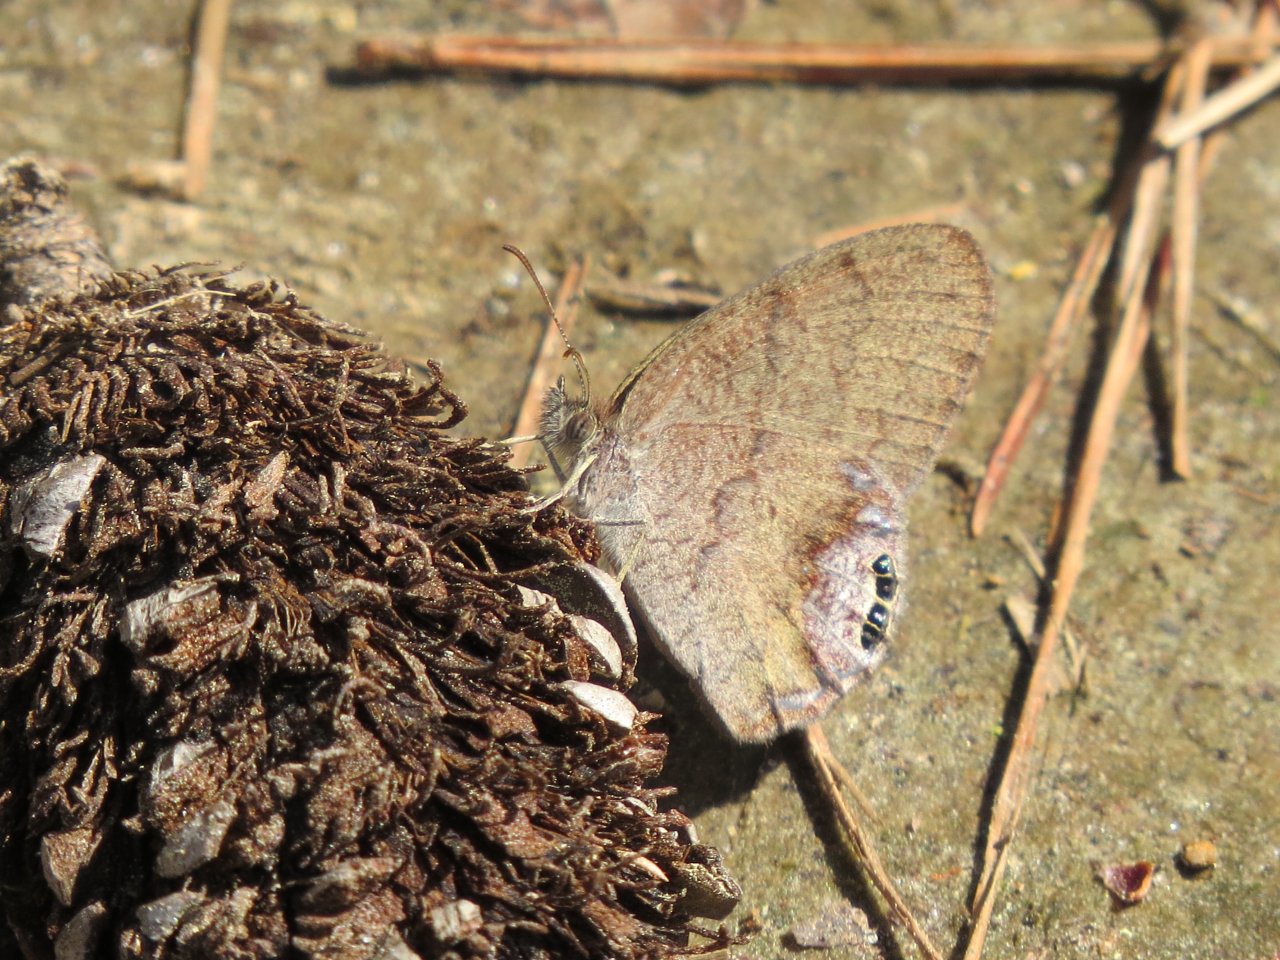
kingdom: Animalia
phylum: Arthropoda
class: Insecta
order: Lepidoptera
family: Nymphalidae
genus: Euptychia
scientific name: Euptychia cornelius
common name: Gemmed Satyr
